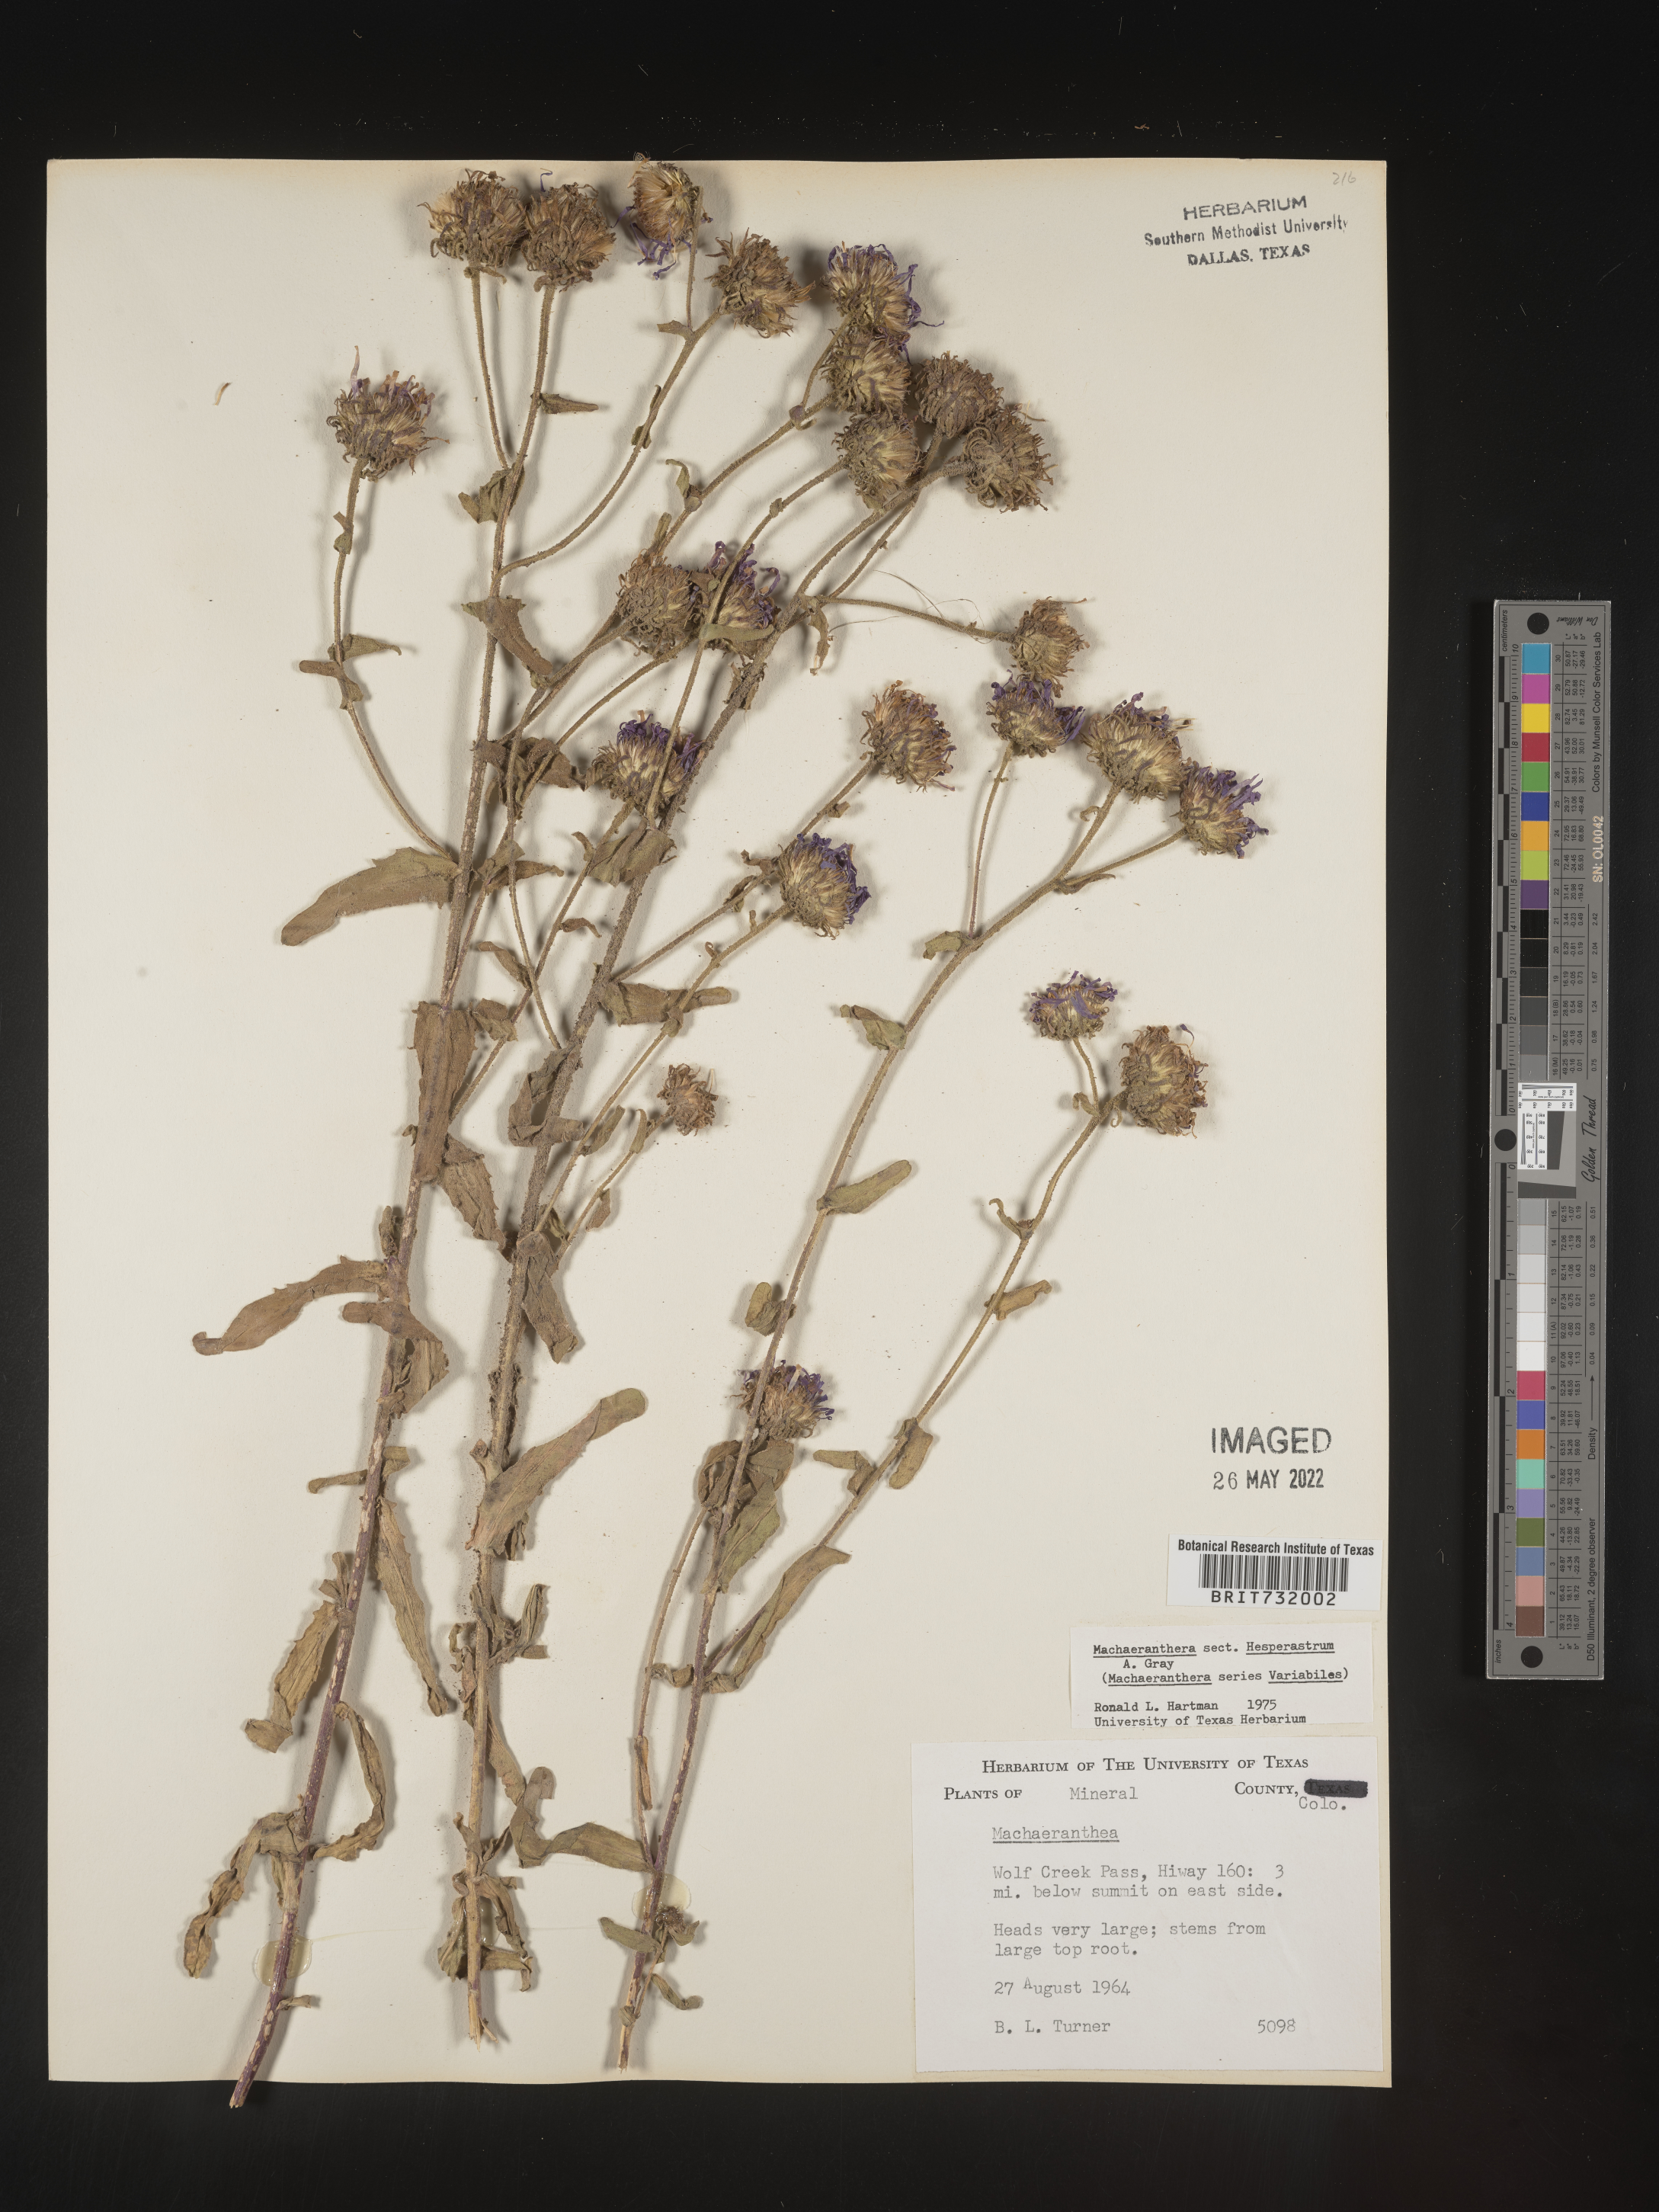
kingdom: Plantae
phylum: Tracheophyta
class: Magnoliopsida
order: Asterales
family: Asteraceae
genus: Machaeranthera
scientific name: Machaeranthera
